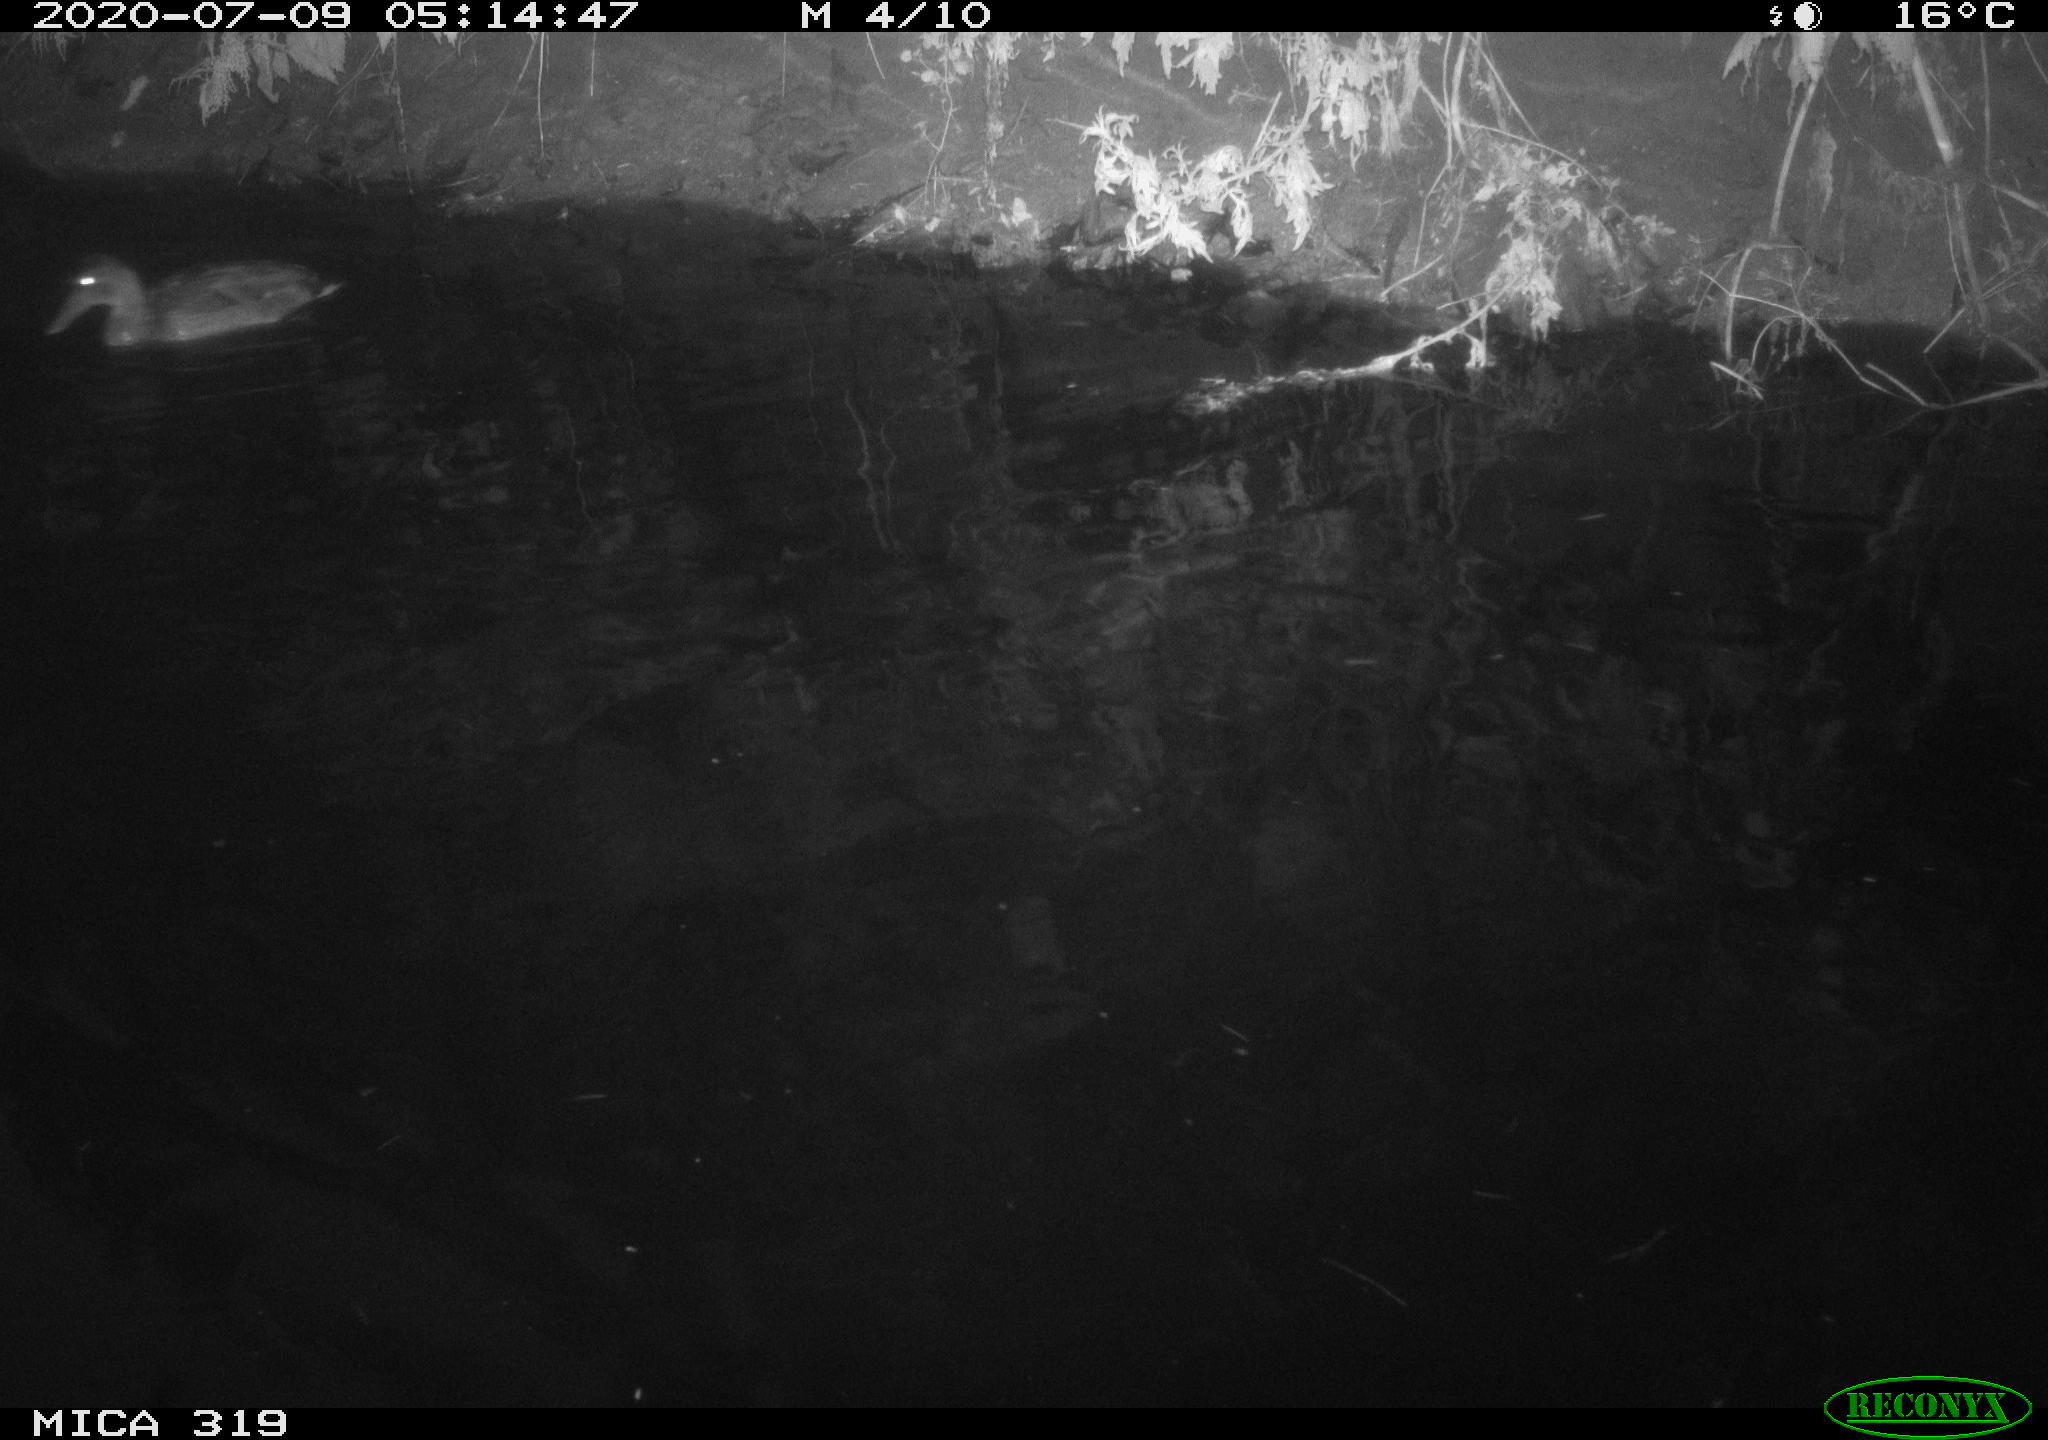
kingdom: Animalia
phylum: Chordata
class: Aves
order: Anseriformes
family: Anatidae
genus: Anas
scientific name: Anas platyrhynchos
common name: Mallard
